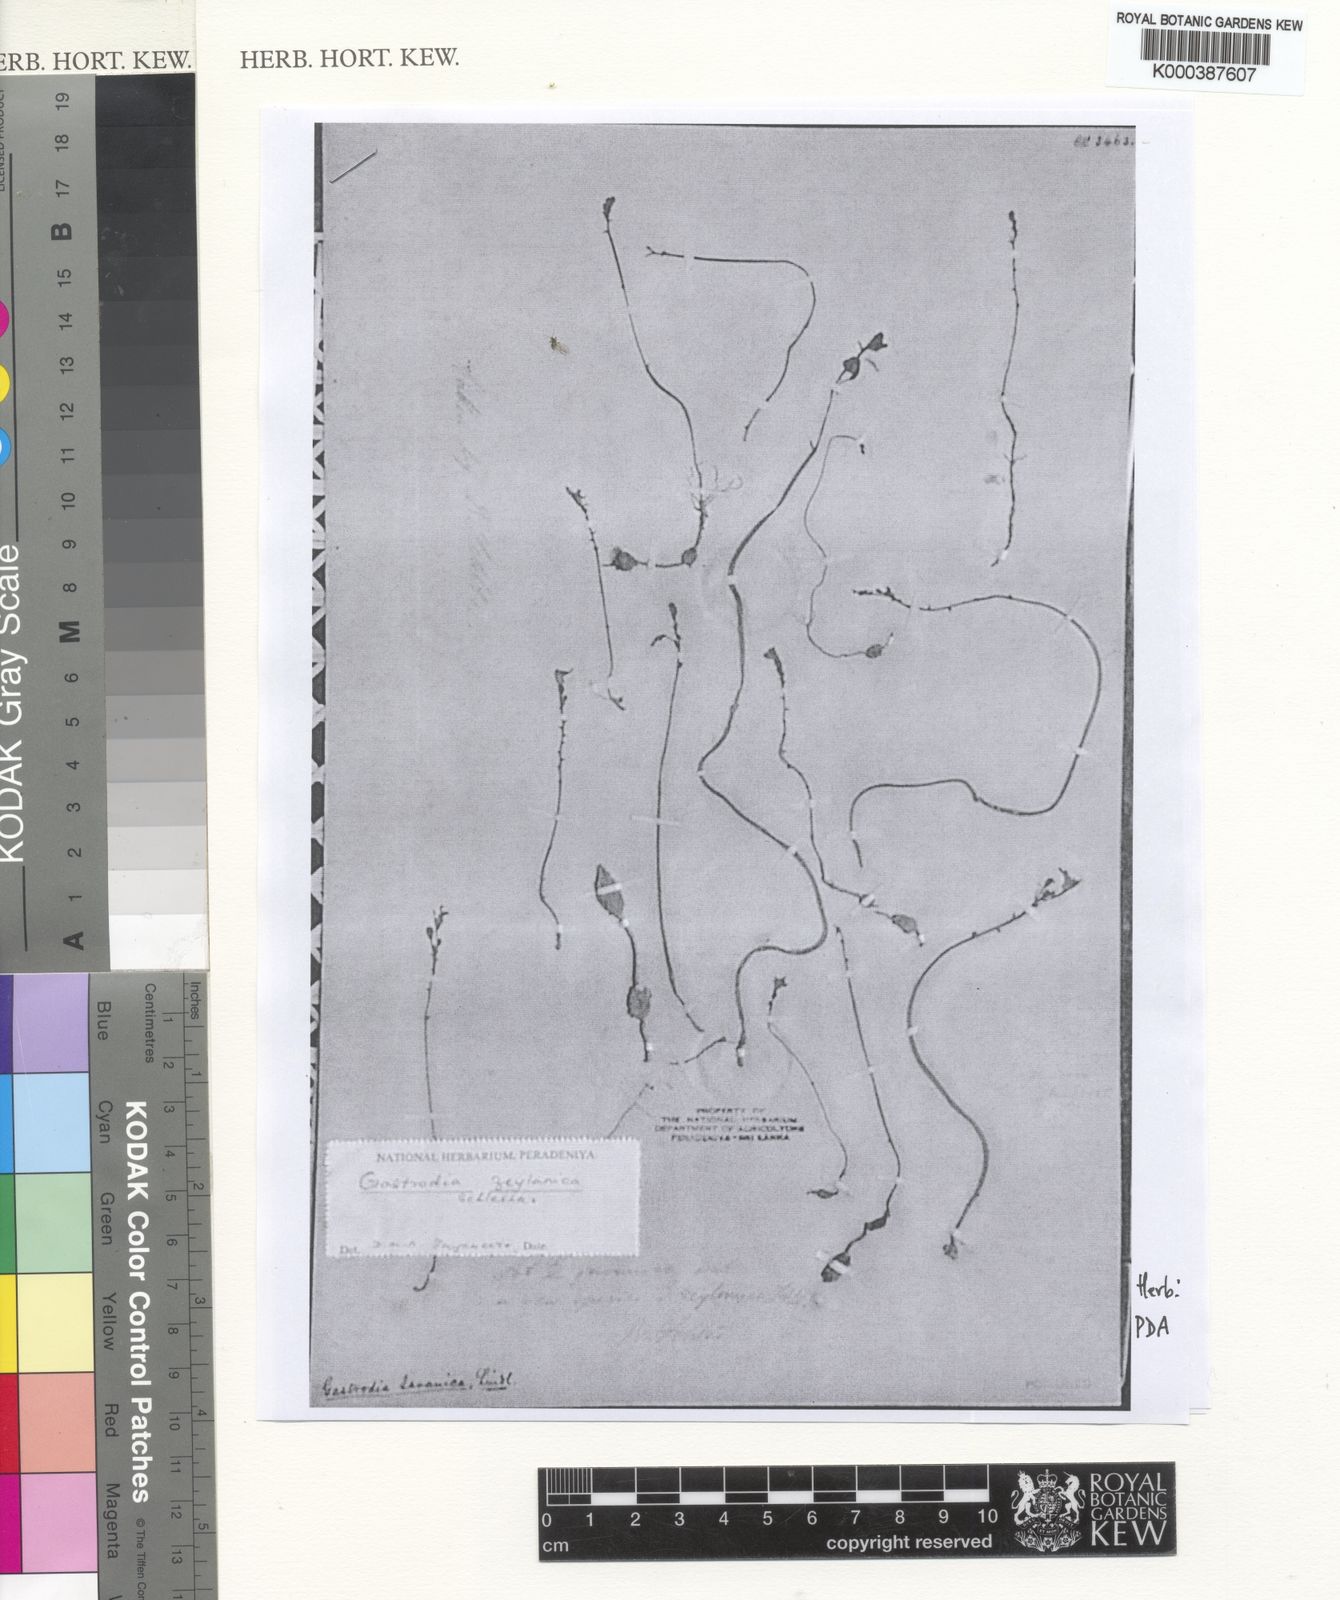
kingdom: Plantae
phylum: Tracheophyta
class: Liliopsida
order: Asparagales
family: Orchidaceae
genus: Gastrodia
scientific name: Gastrodia zeylanica
